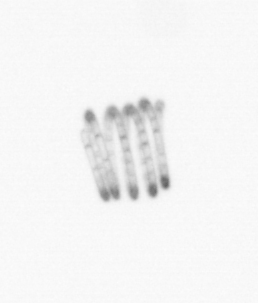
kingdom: Chromista
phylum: Ochrophyta
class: Bacillariophyceae
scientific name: Bacillariophyceae
